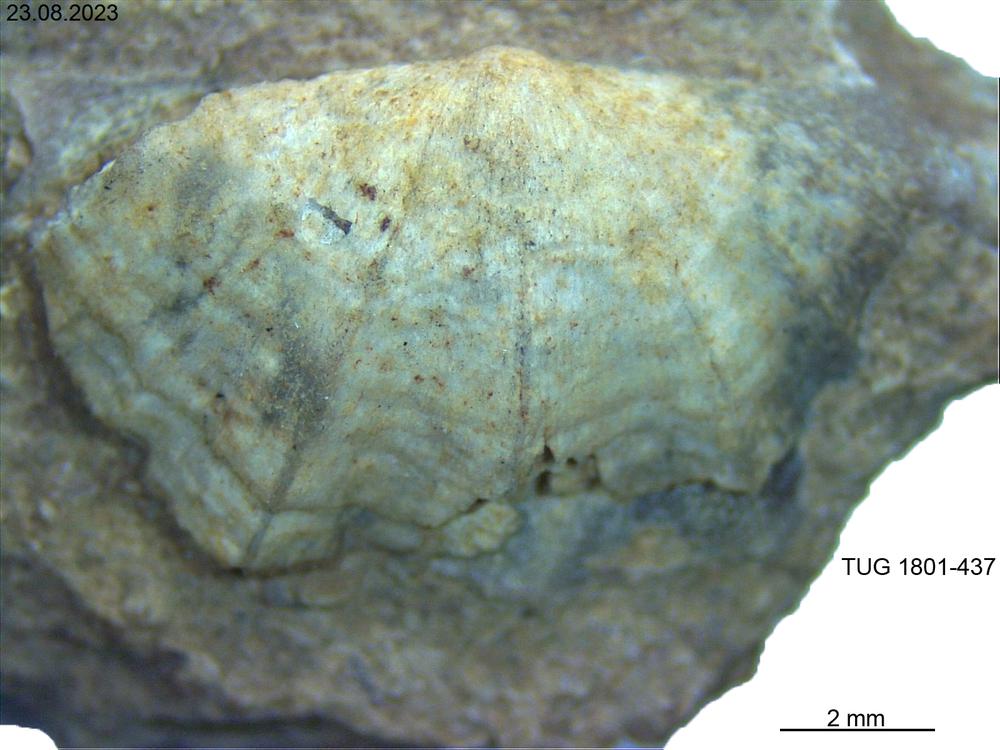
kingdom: Animalia
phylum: Brachiopoda
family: Strophomenidae
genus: Leptaena
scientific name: Leptaena
